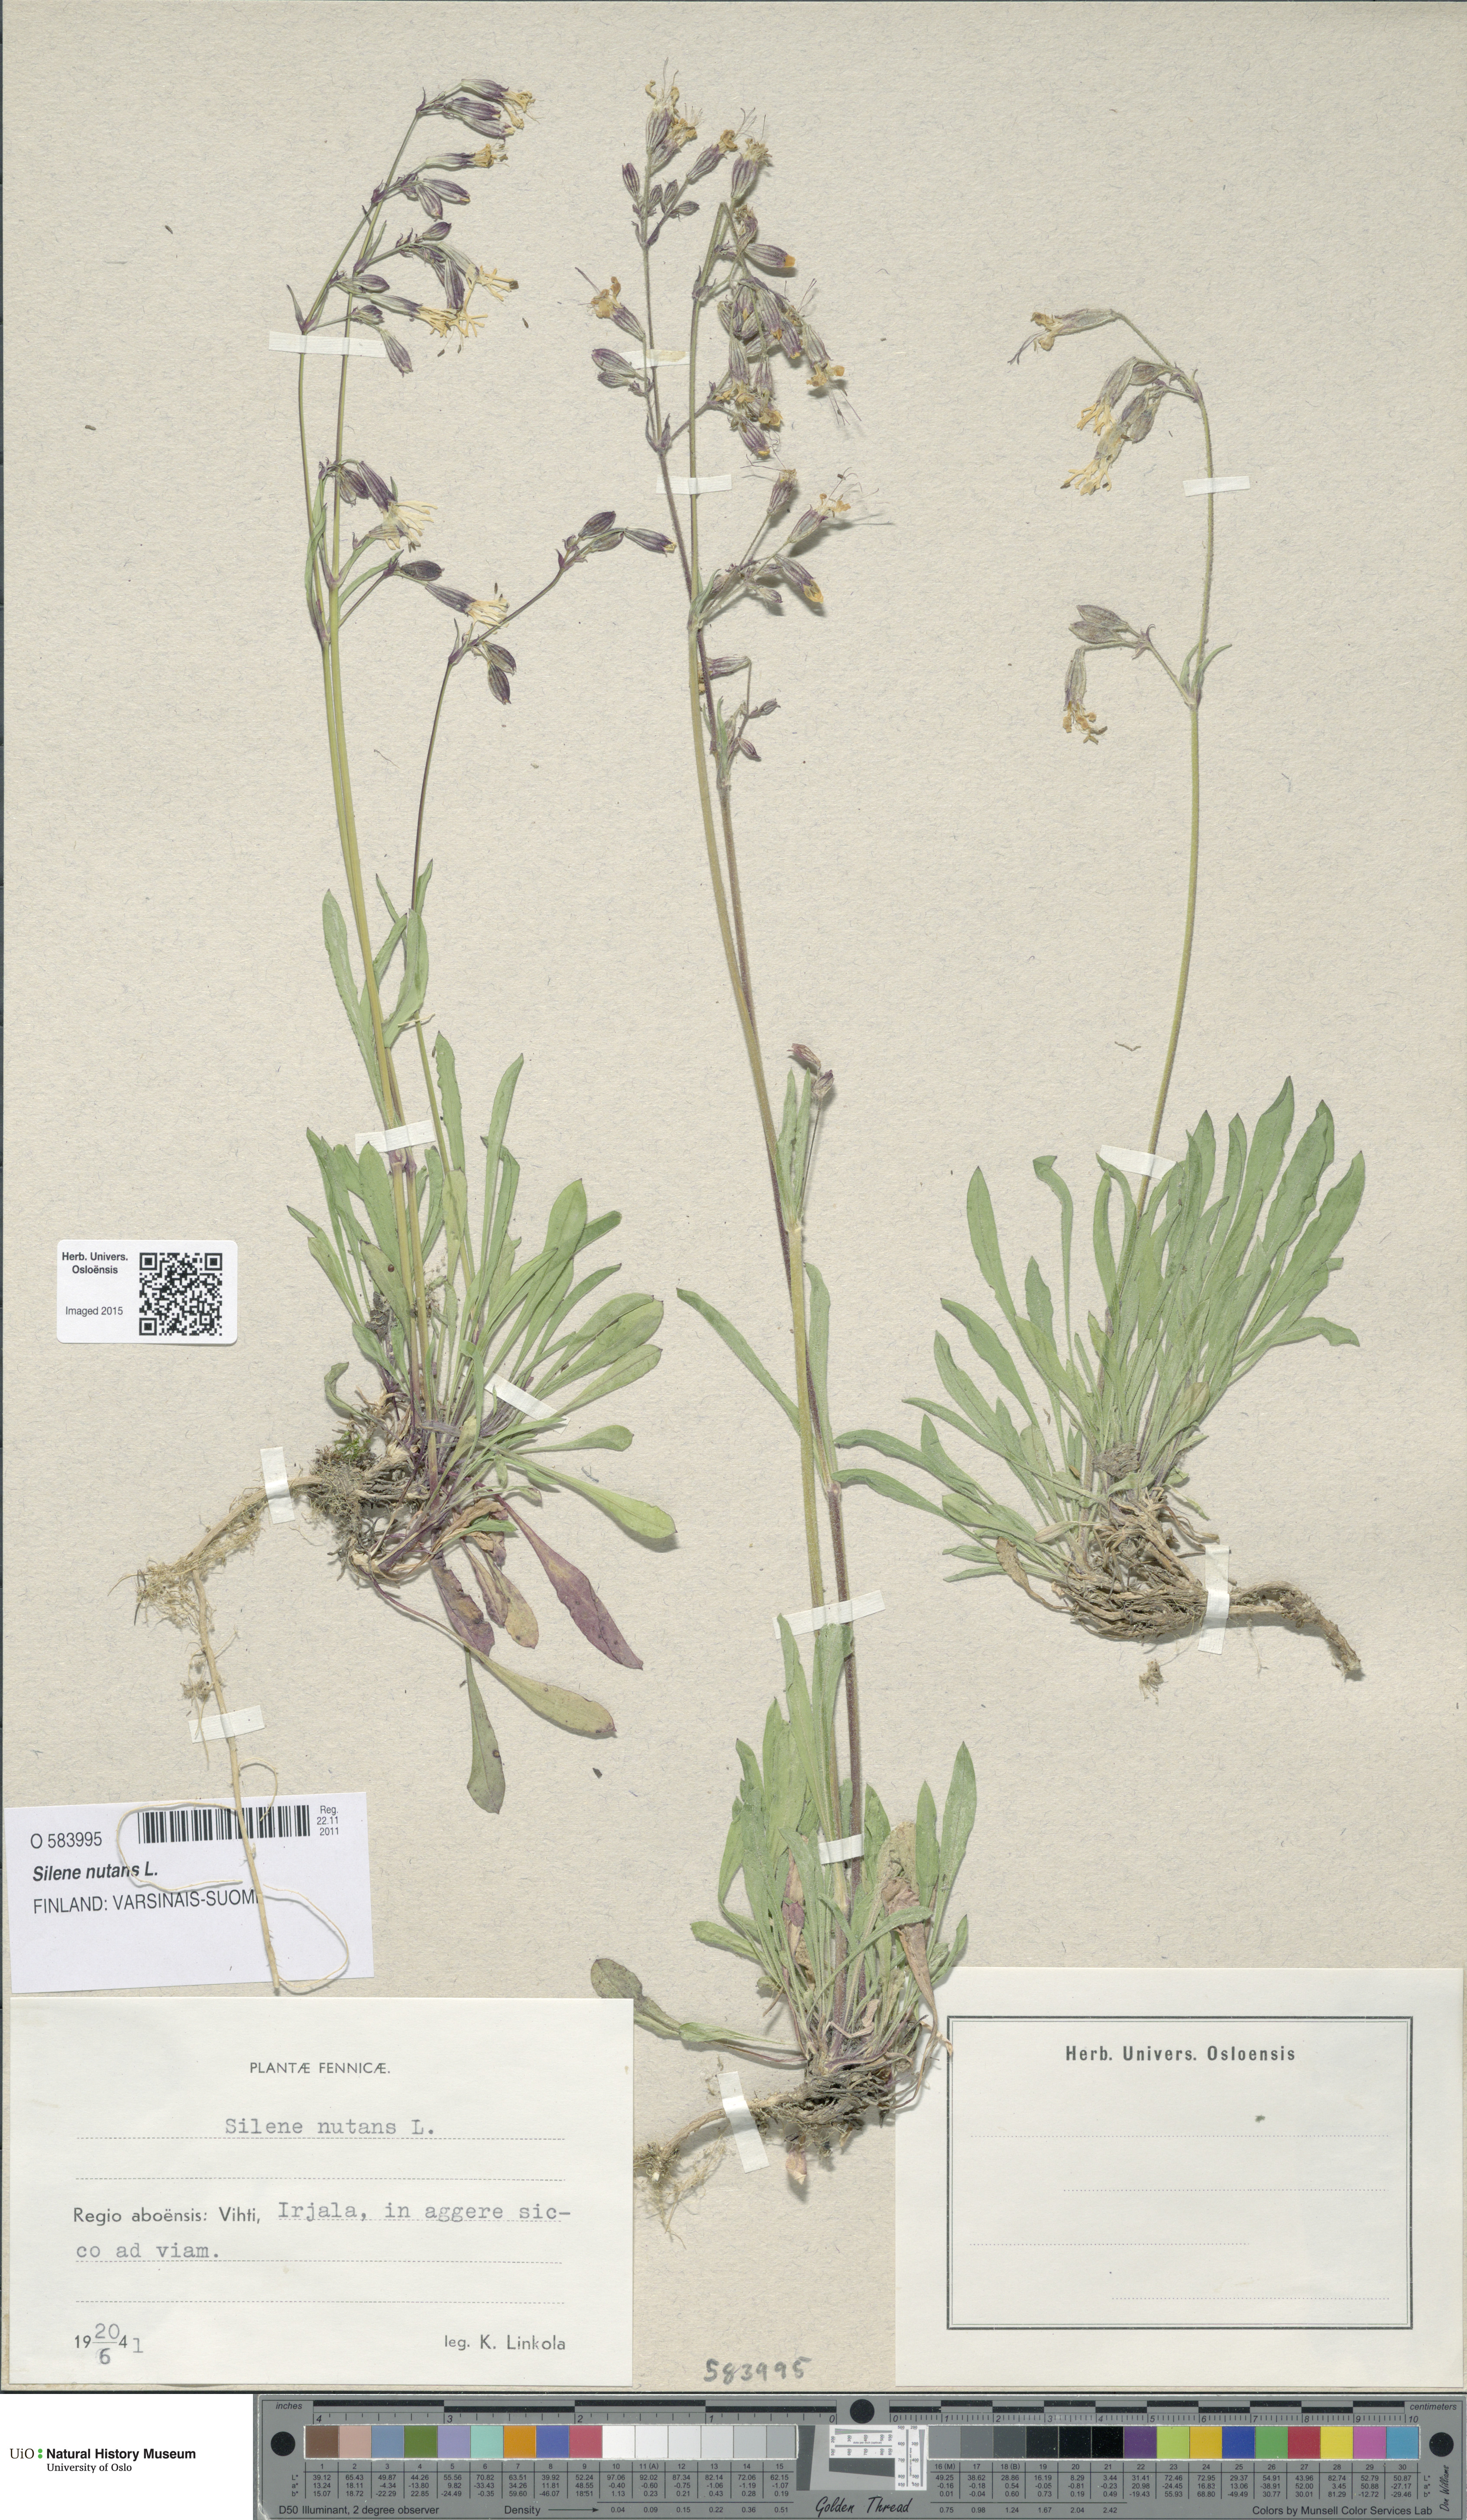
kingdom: Plantae
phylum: Tracheophyta
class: Magnoliopsida
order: Caryophyllales
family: Caryophyllaceae
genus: Silene
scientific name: Silene nutans
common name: Nottingham catchfly
